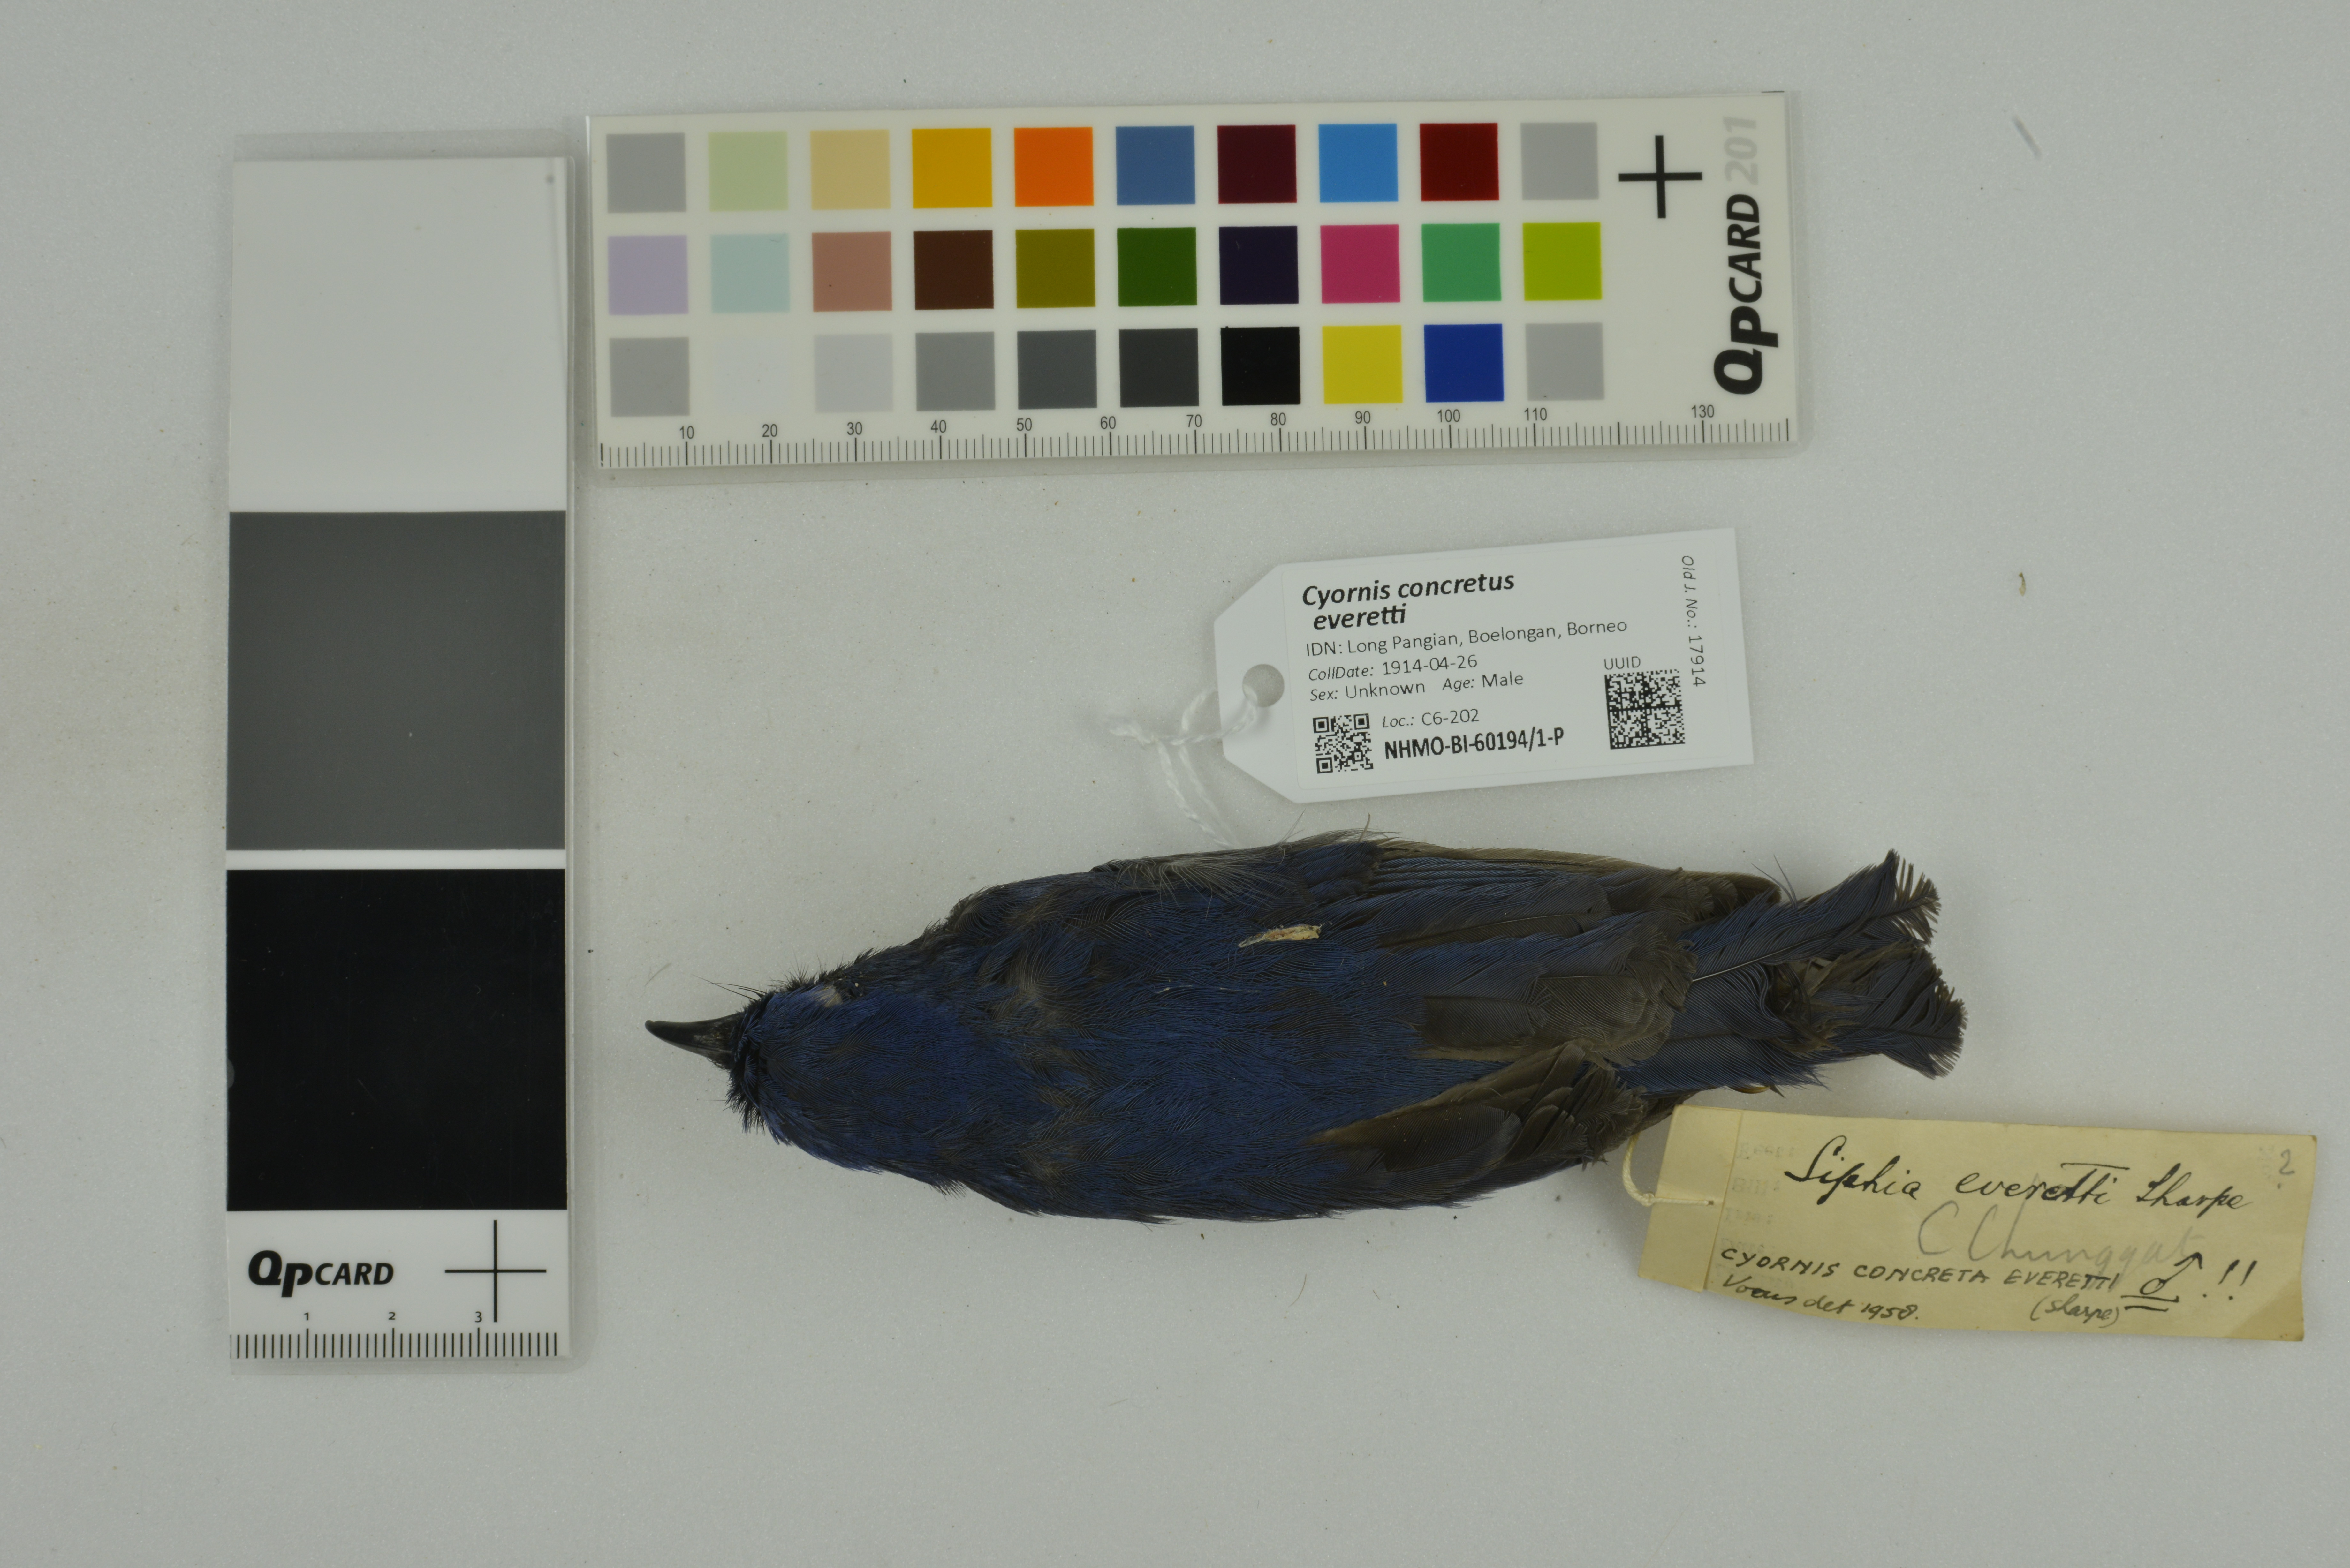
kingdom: Animalia
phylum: Chordata
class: Aves
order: Passeriformes
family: Muscicapidae
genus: Cyornis
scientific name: Cyornis concretus
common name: White-tailed flycatcher
